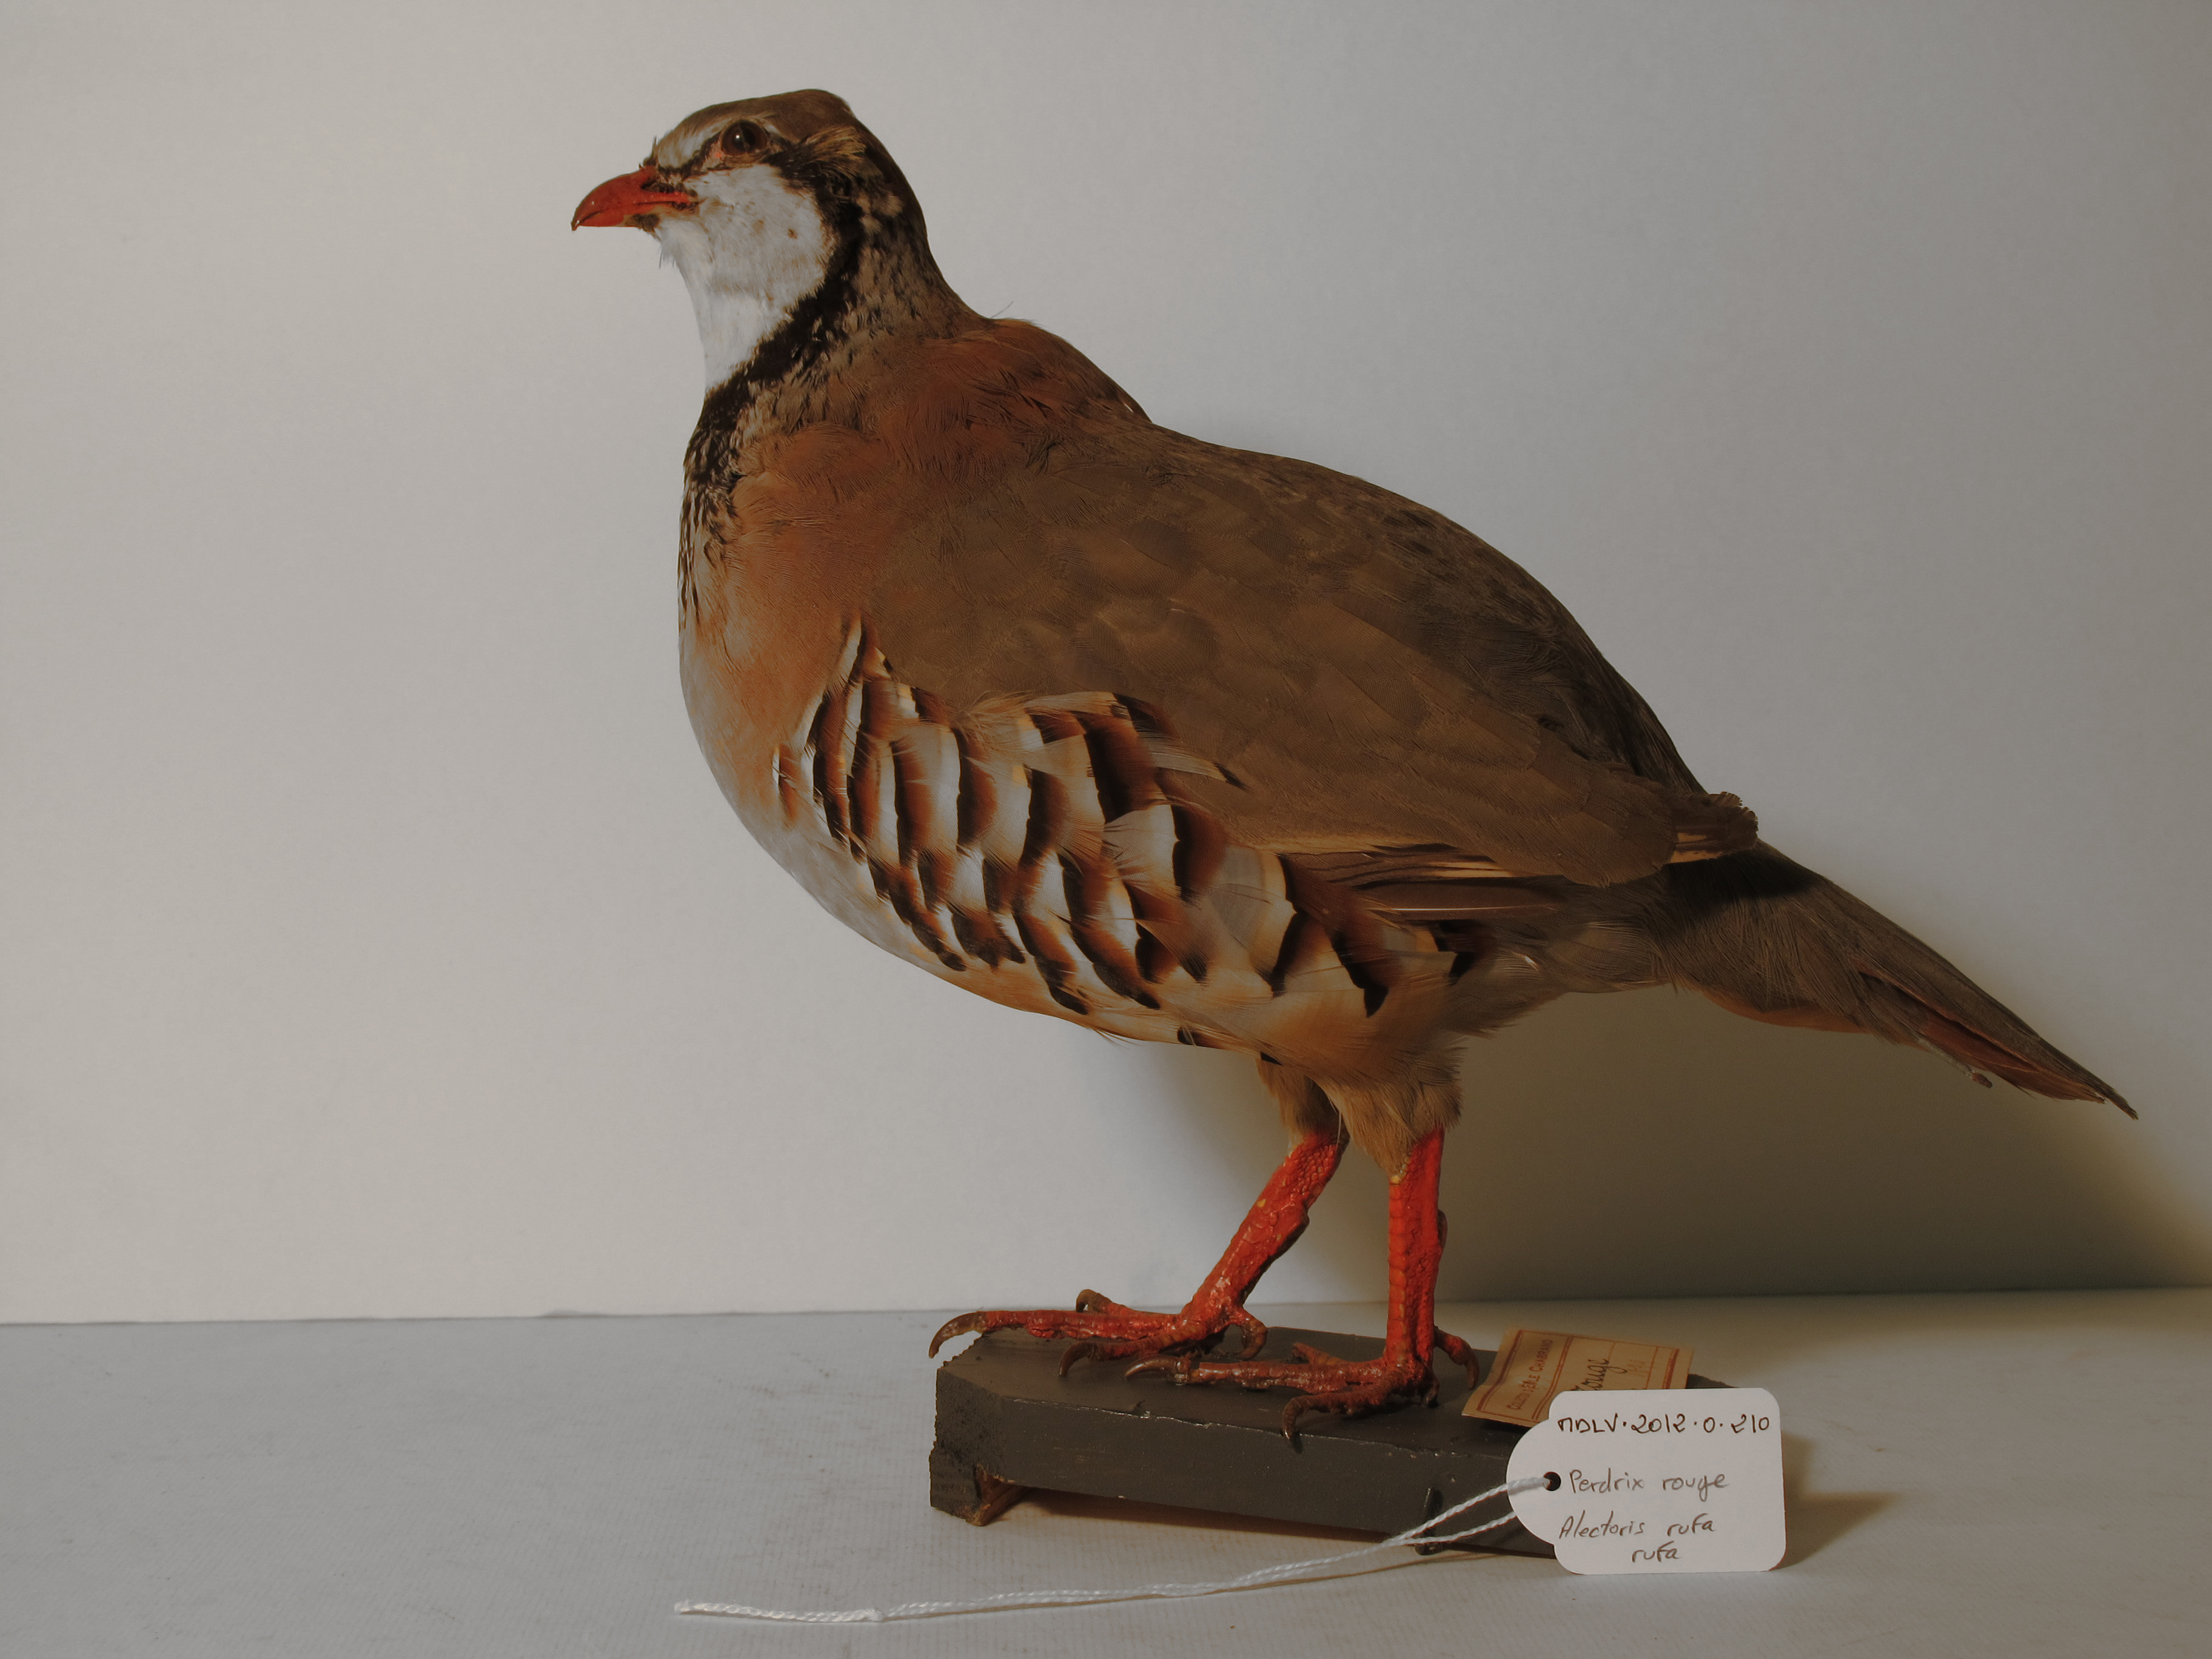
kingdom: Animalia
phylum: Chordata
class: Aves
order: Galliformes
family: Phasianidae
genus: Alectoris
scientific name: Alectoris rufa
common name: Red-legged Partridge
